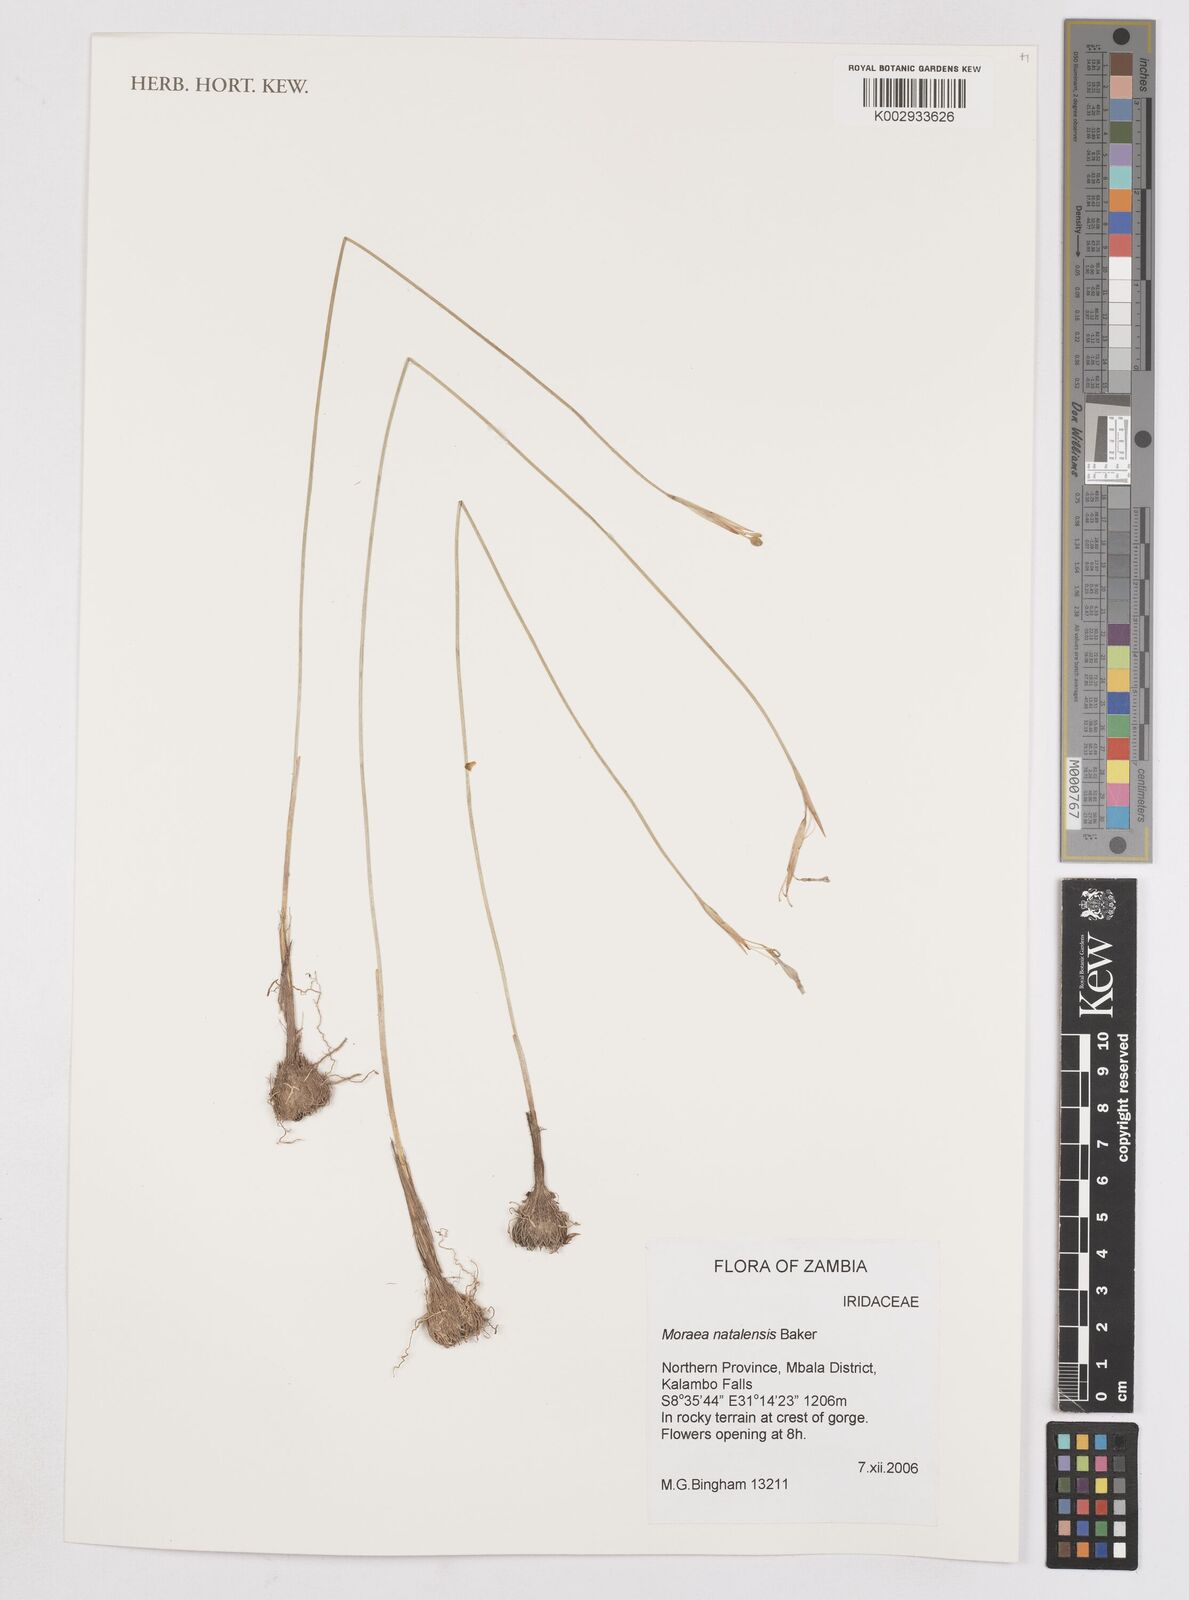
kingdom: Plantae
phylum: Tracheophyta
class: Liliopsida
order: Asparagales
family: Iridaceae
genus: Moraea
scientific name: Moraea natalensis
